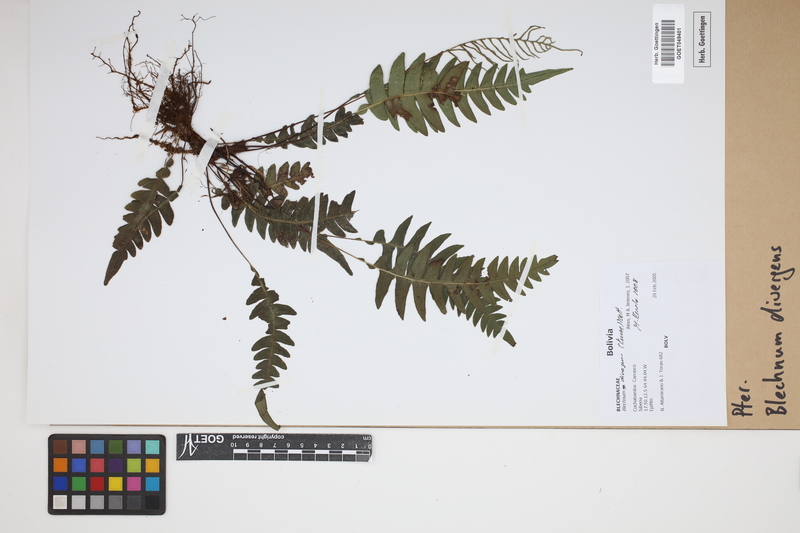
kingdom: Plantae
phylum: Tracheophyta
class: Polypodiopsida
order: Polypodiales
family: Blechnaceae
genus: Austroblechnum
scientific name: Austroblechnum divergens
